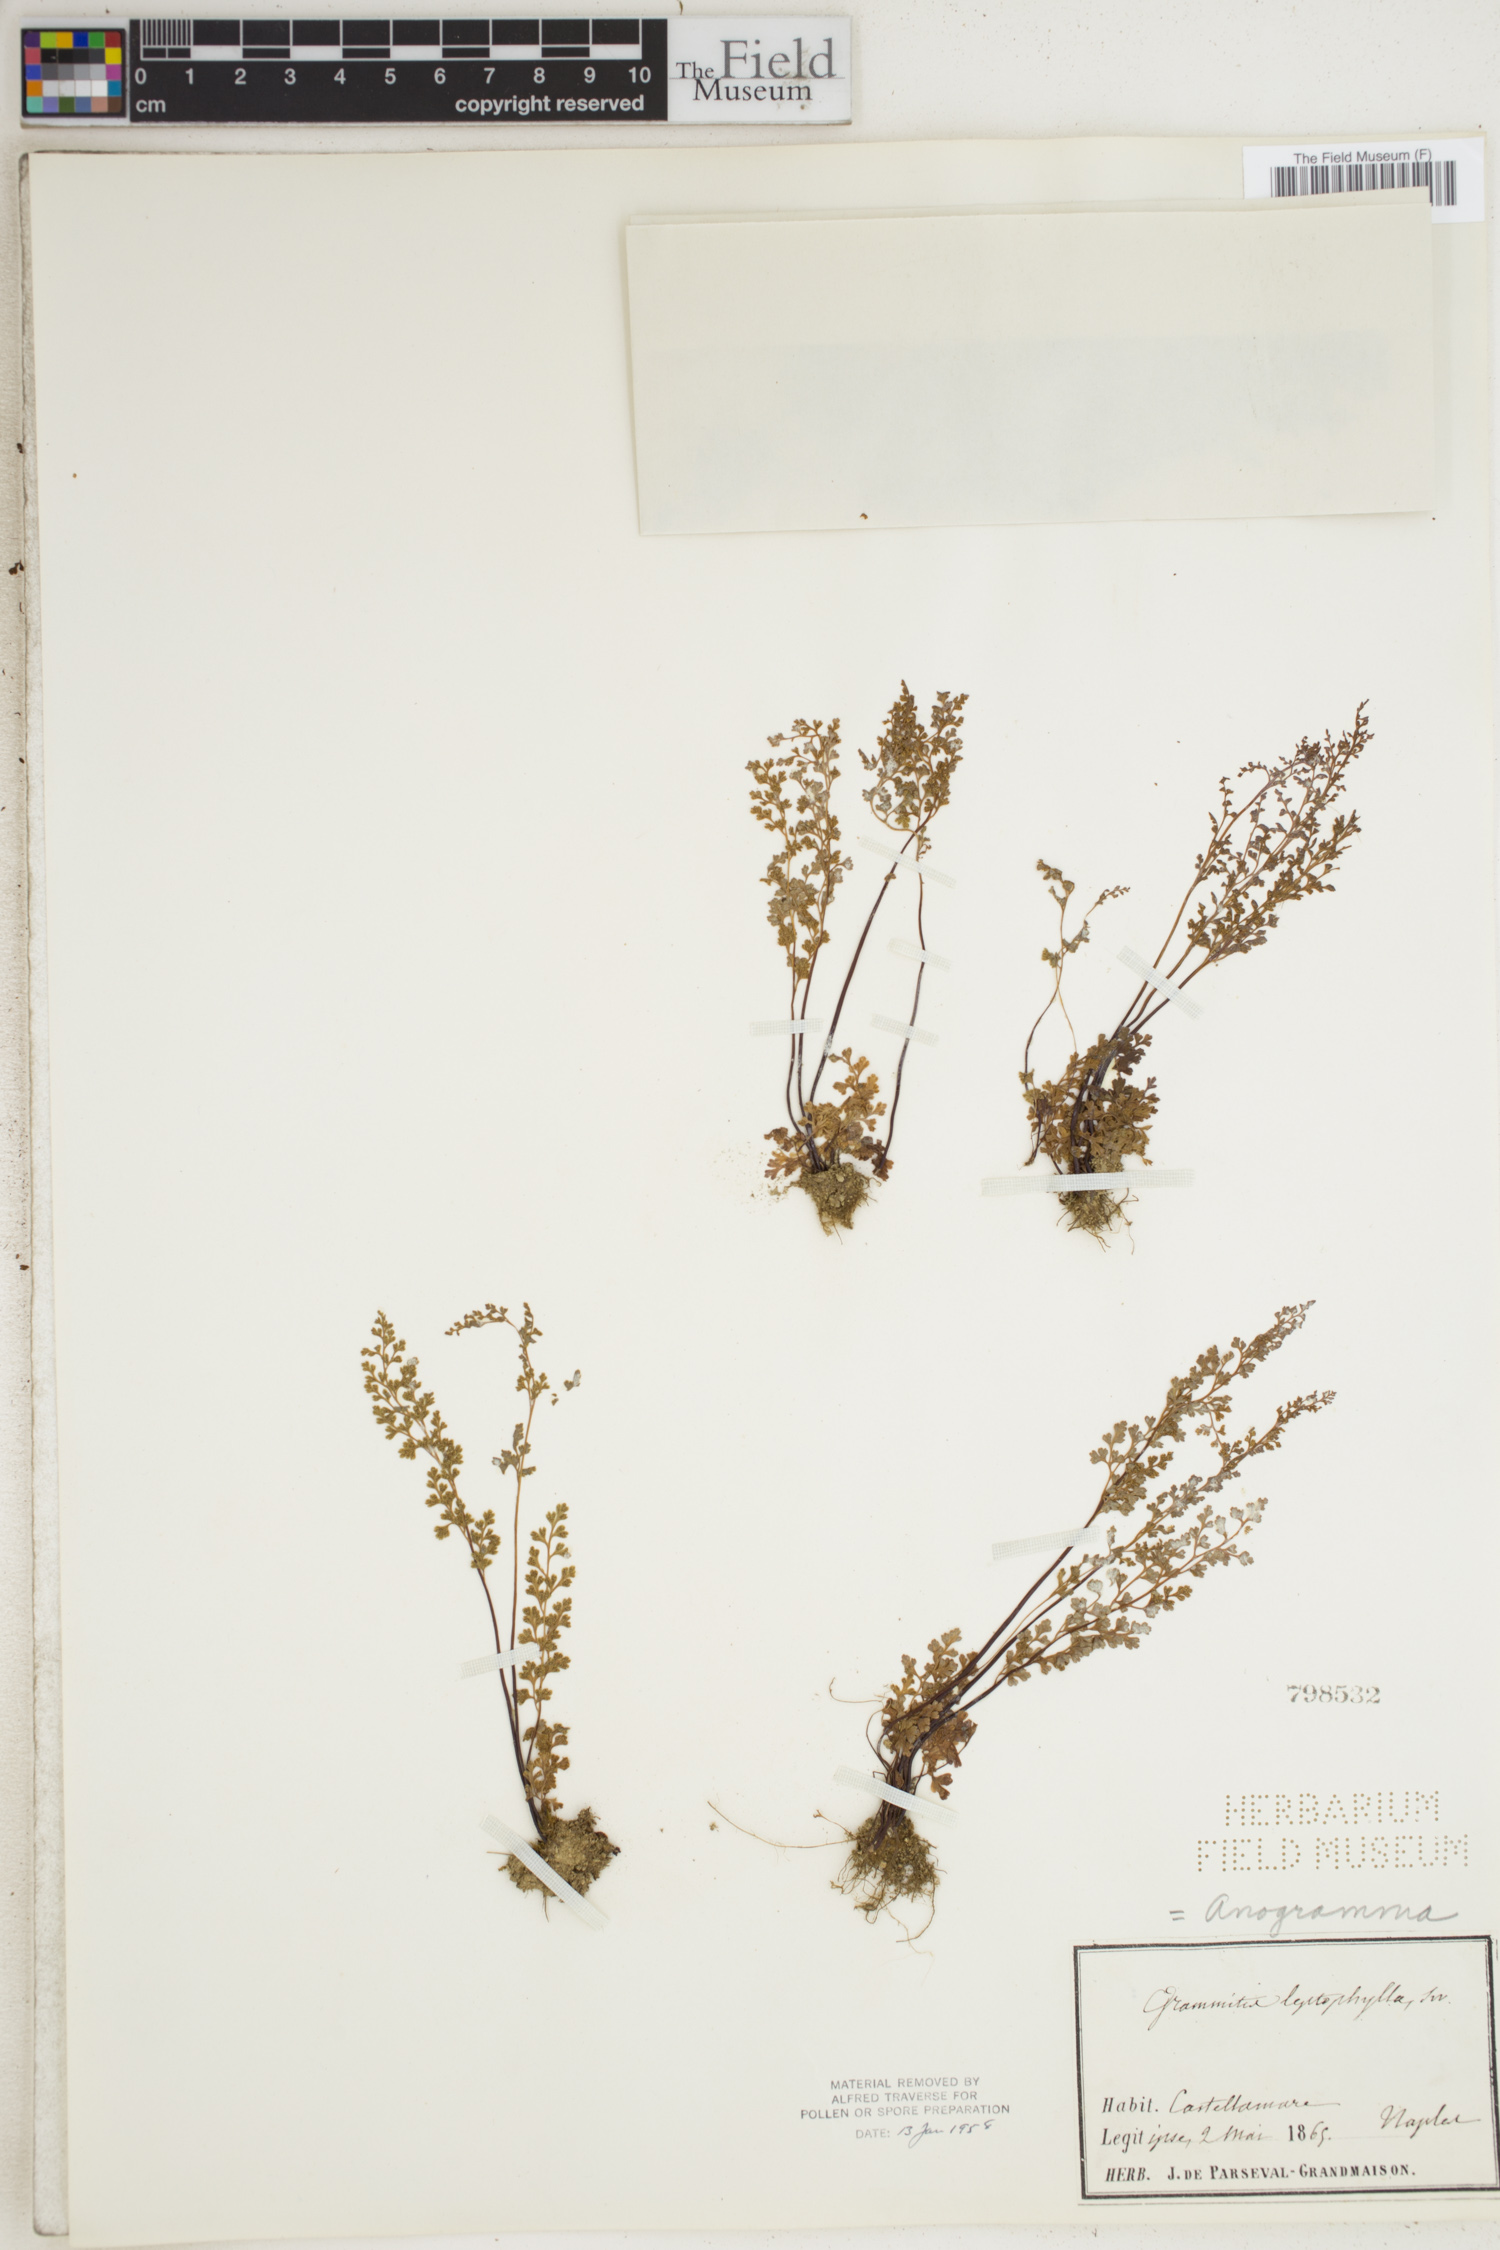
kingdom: Plantae
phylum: Tracheophyta
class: Polypodiopsida
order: Polypodiales
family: Pteridaceae
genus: Anogramma
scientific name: Anogramma leptophylla
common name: Jersey fern
